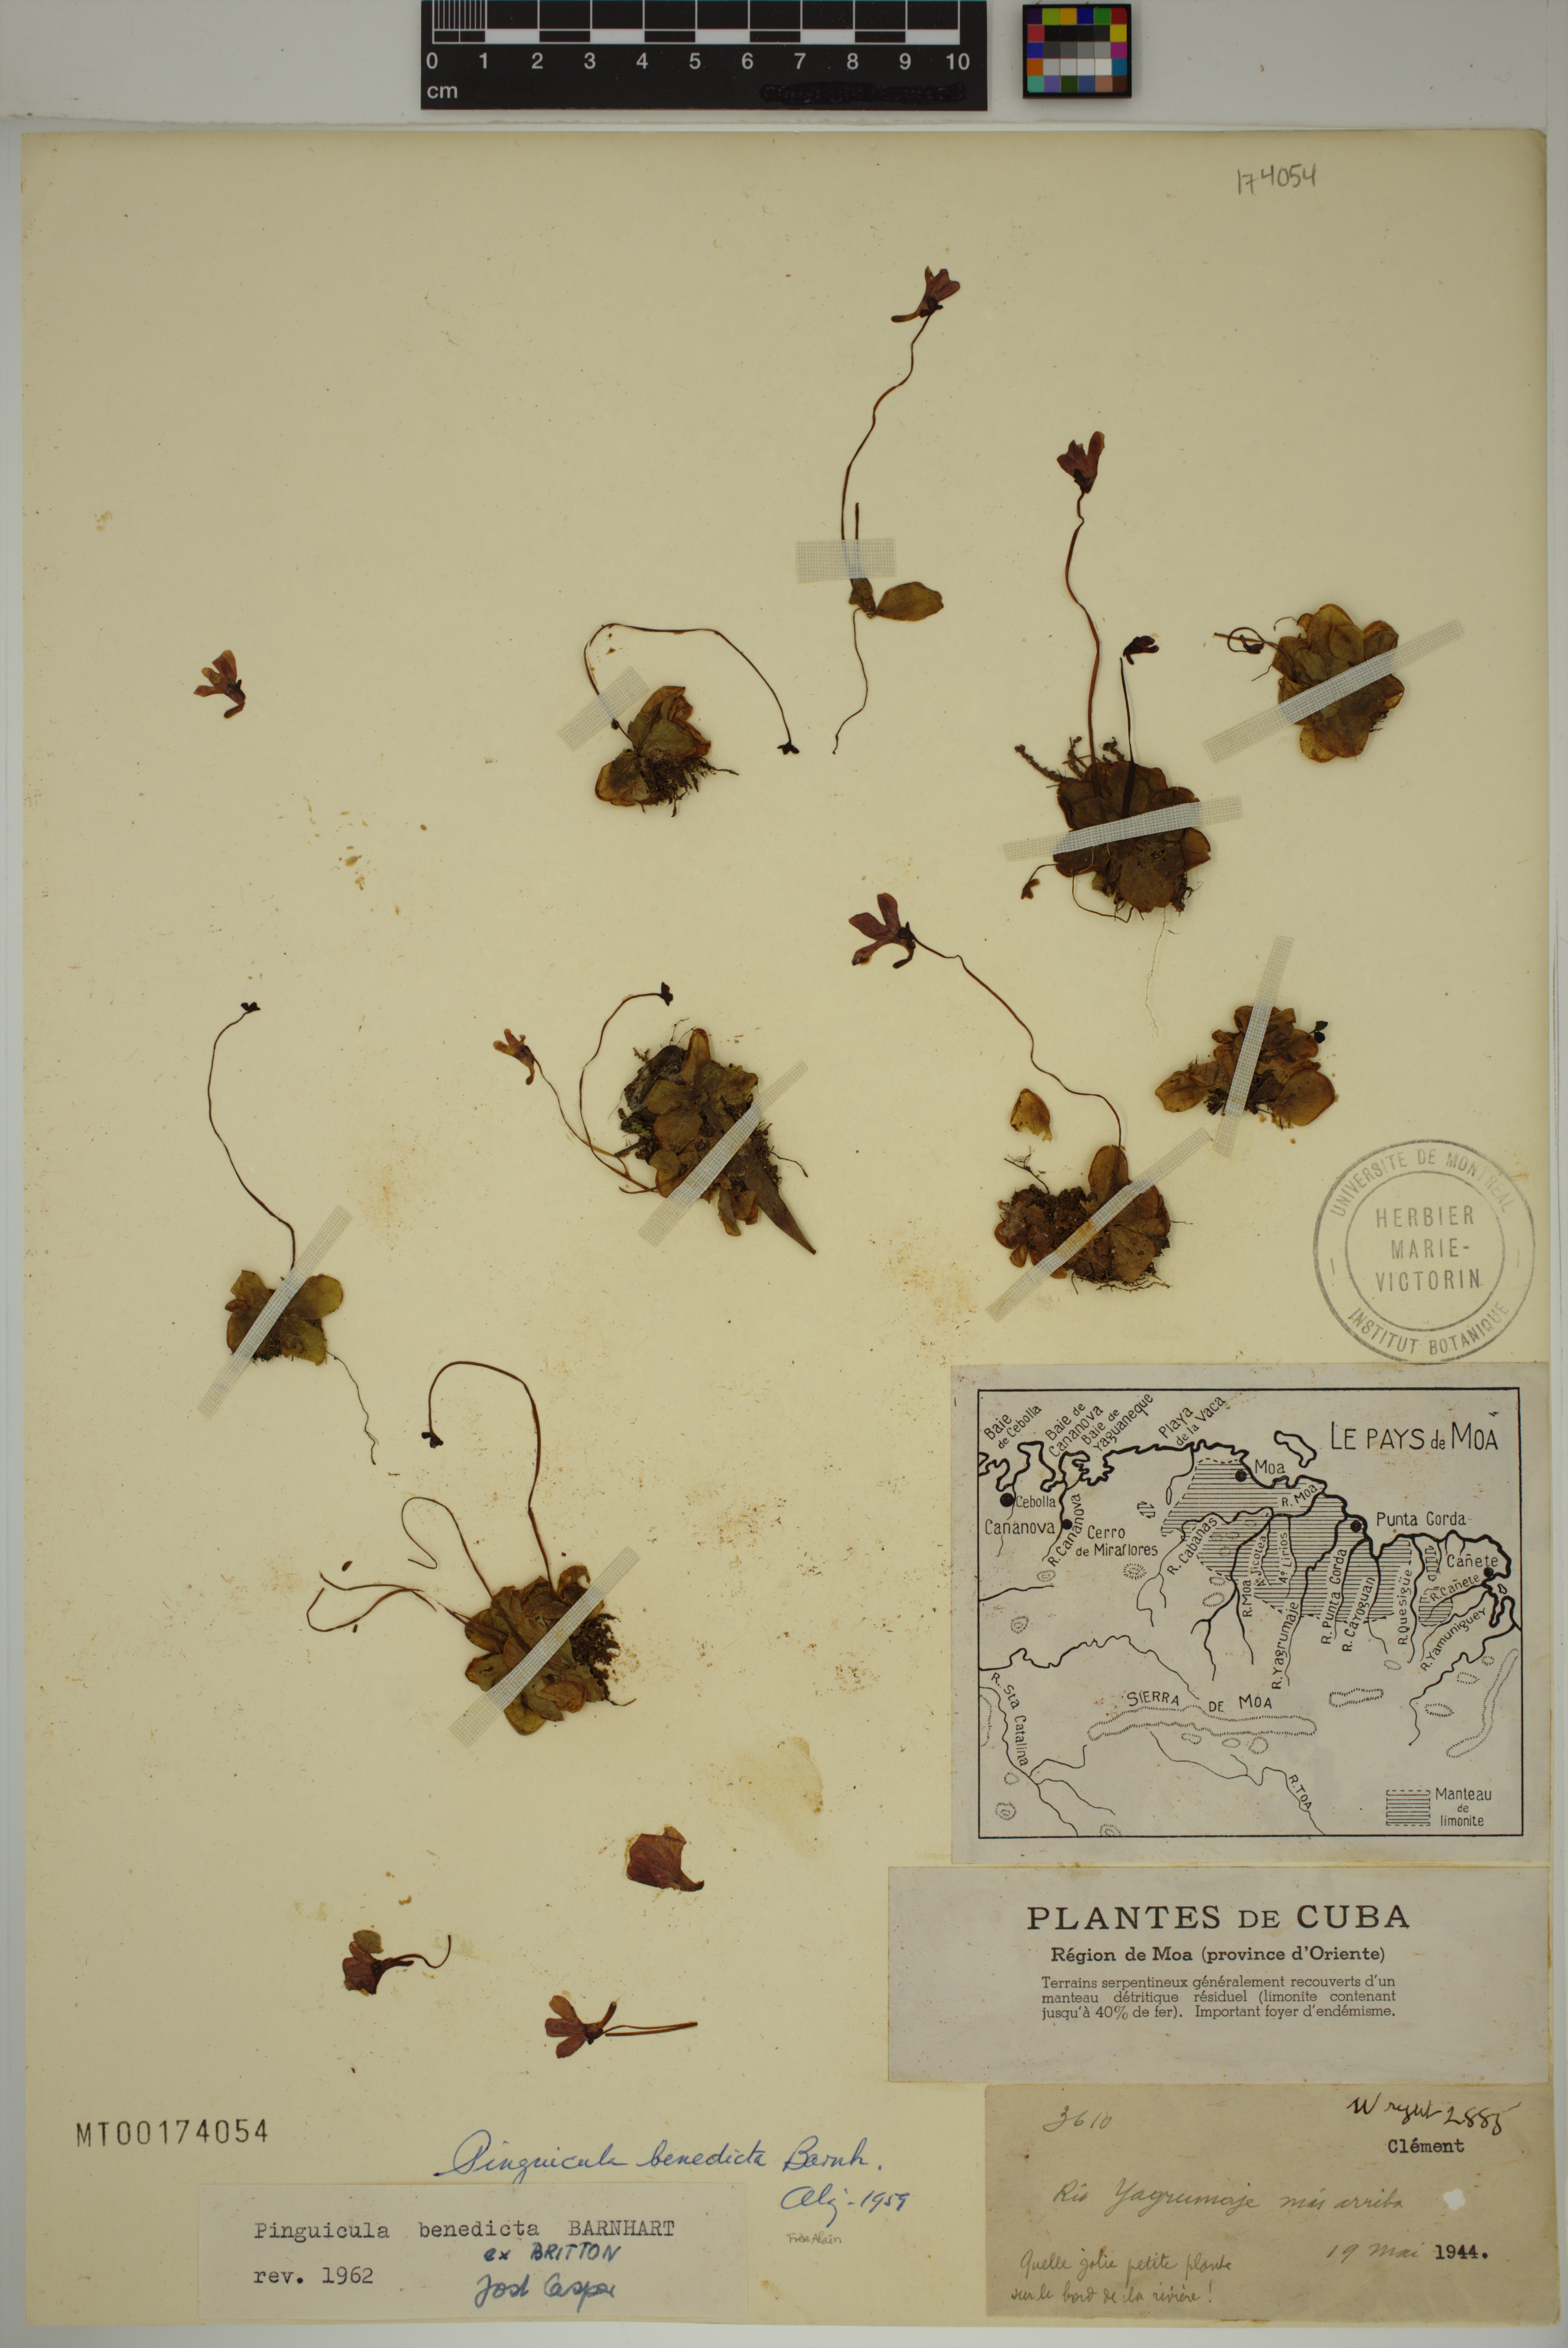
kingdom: Plantae
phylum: Tracheophyta
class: Magnoliopsida
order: Lamiales
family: Lentibulariaceae
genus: Pinguicula
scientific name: Pinguicula benedicta
